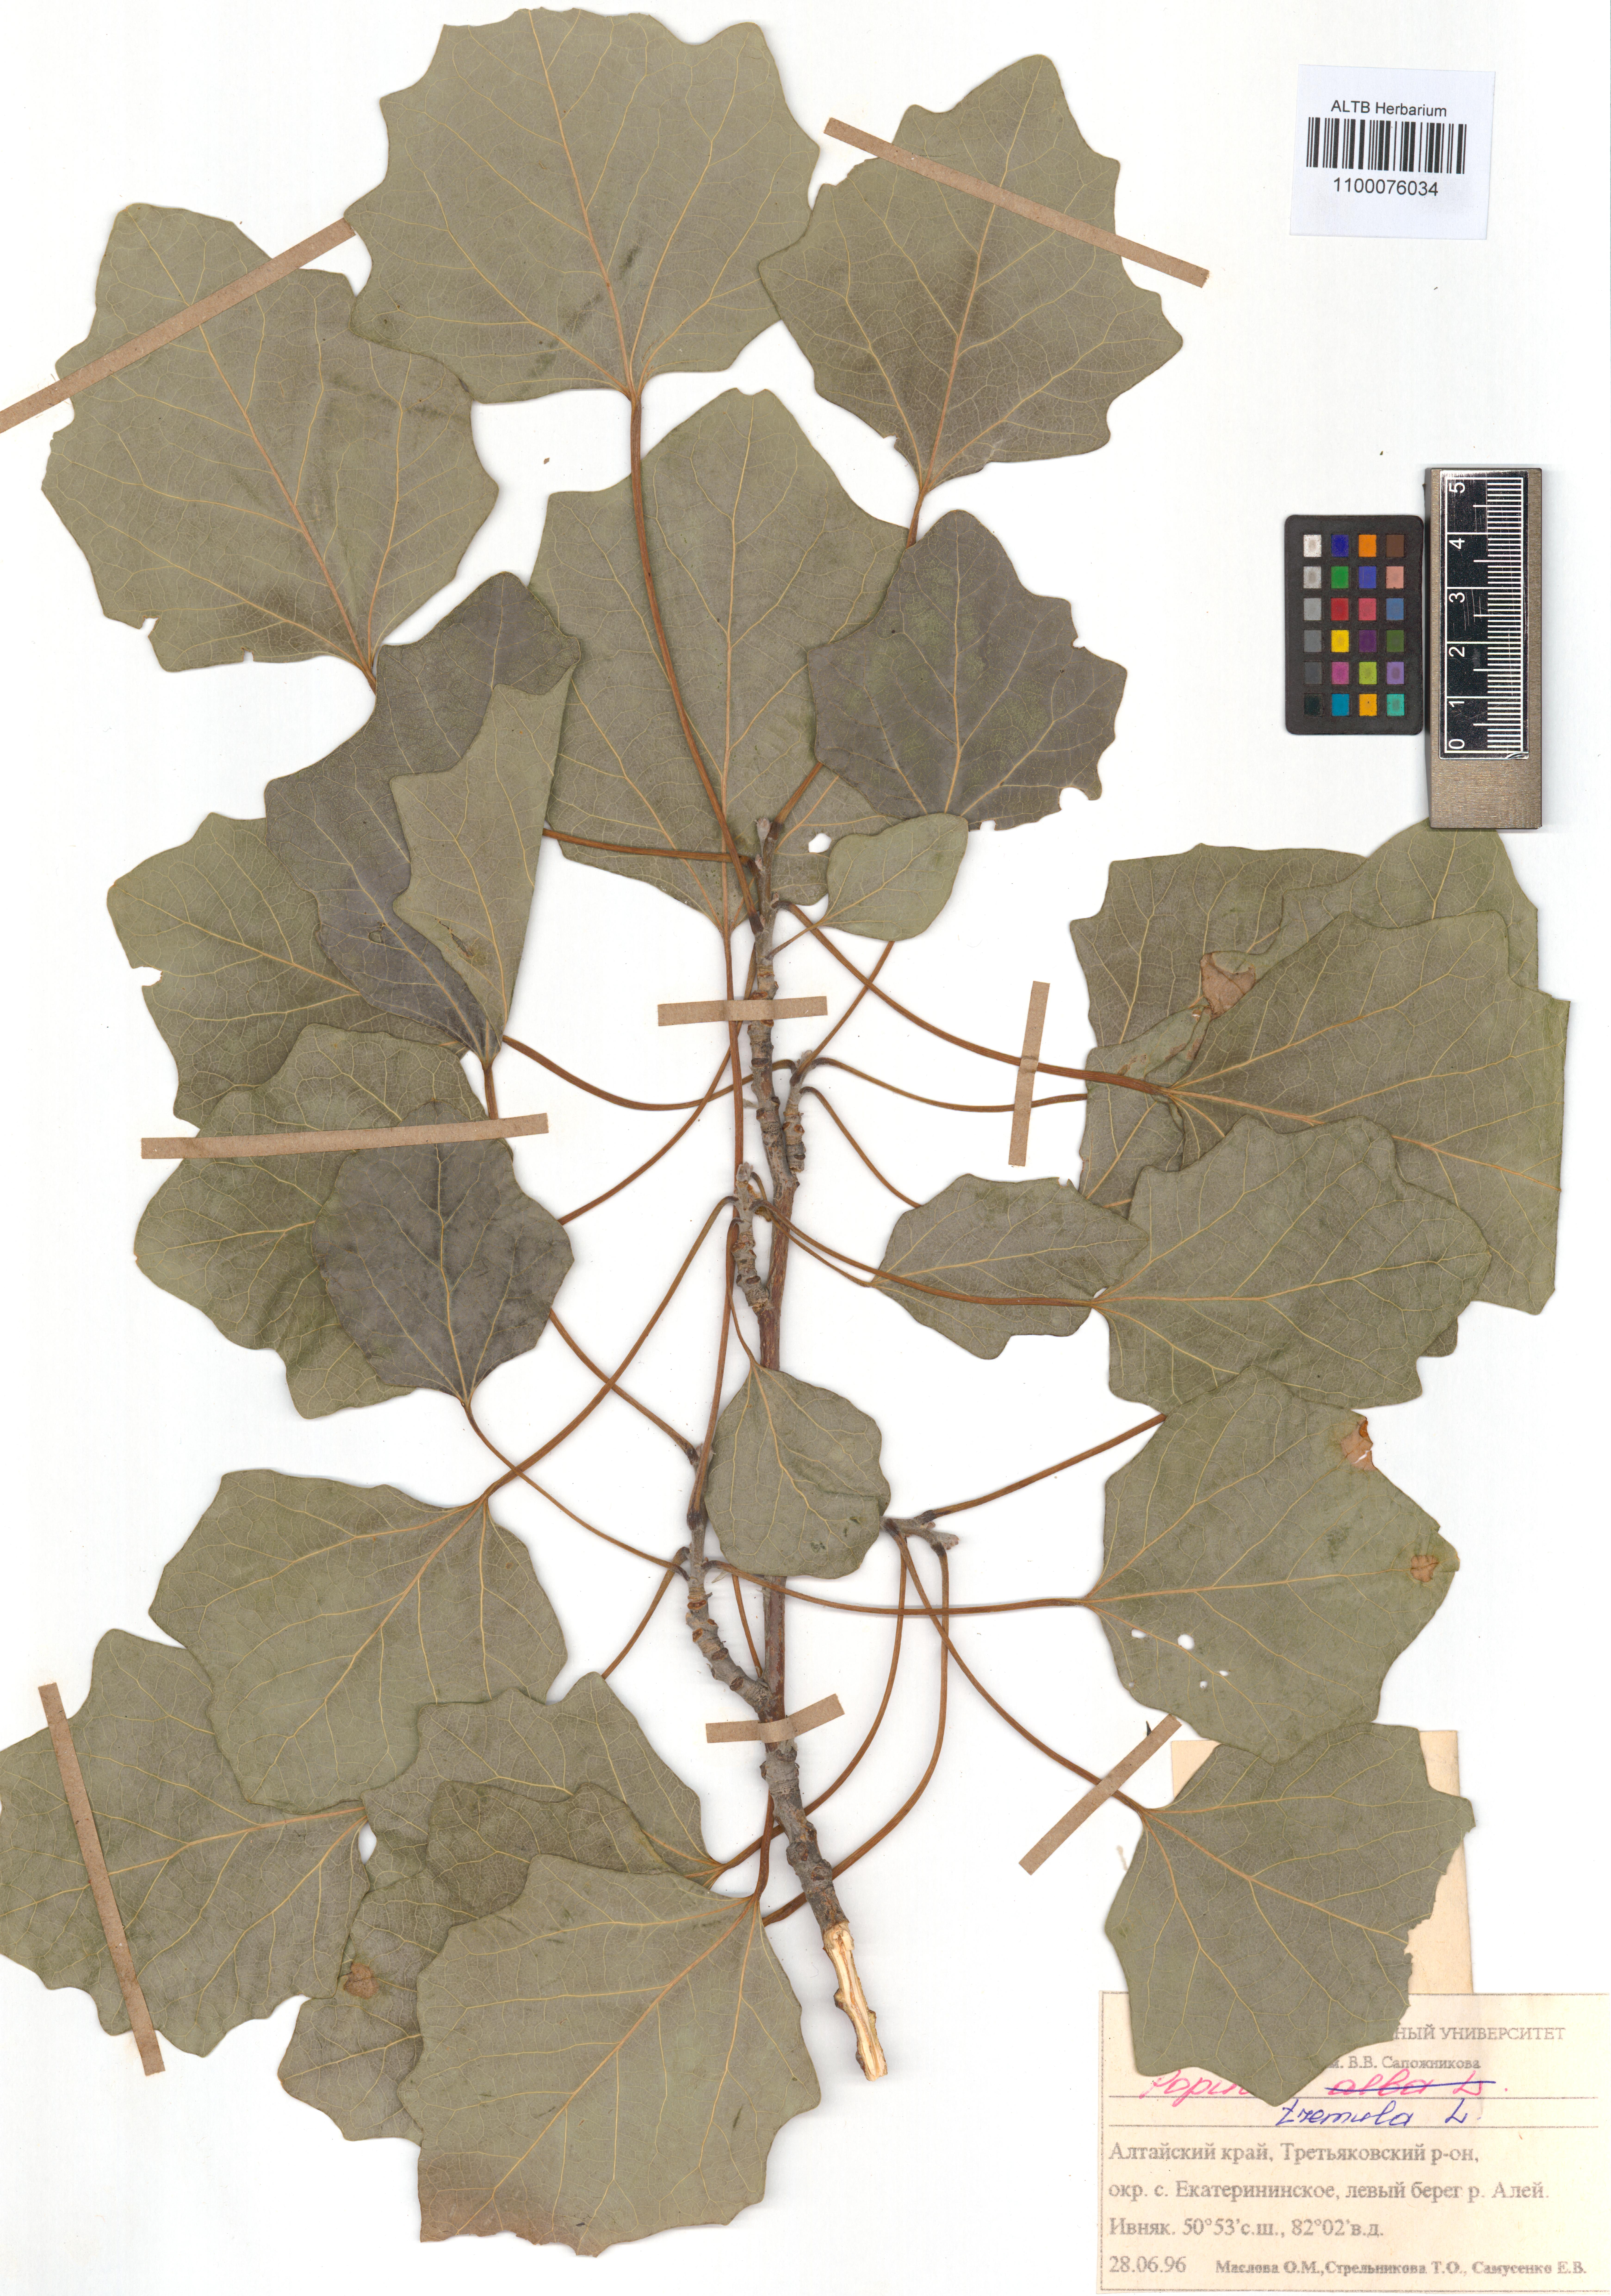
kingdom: Plantae
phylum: Tracheophyta
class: Magnoliopsida
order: Malpighiales
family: Salicaceae
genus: Populus
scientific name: Populus tremula
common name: European aspen
